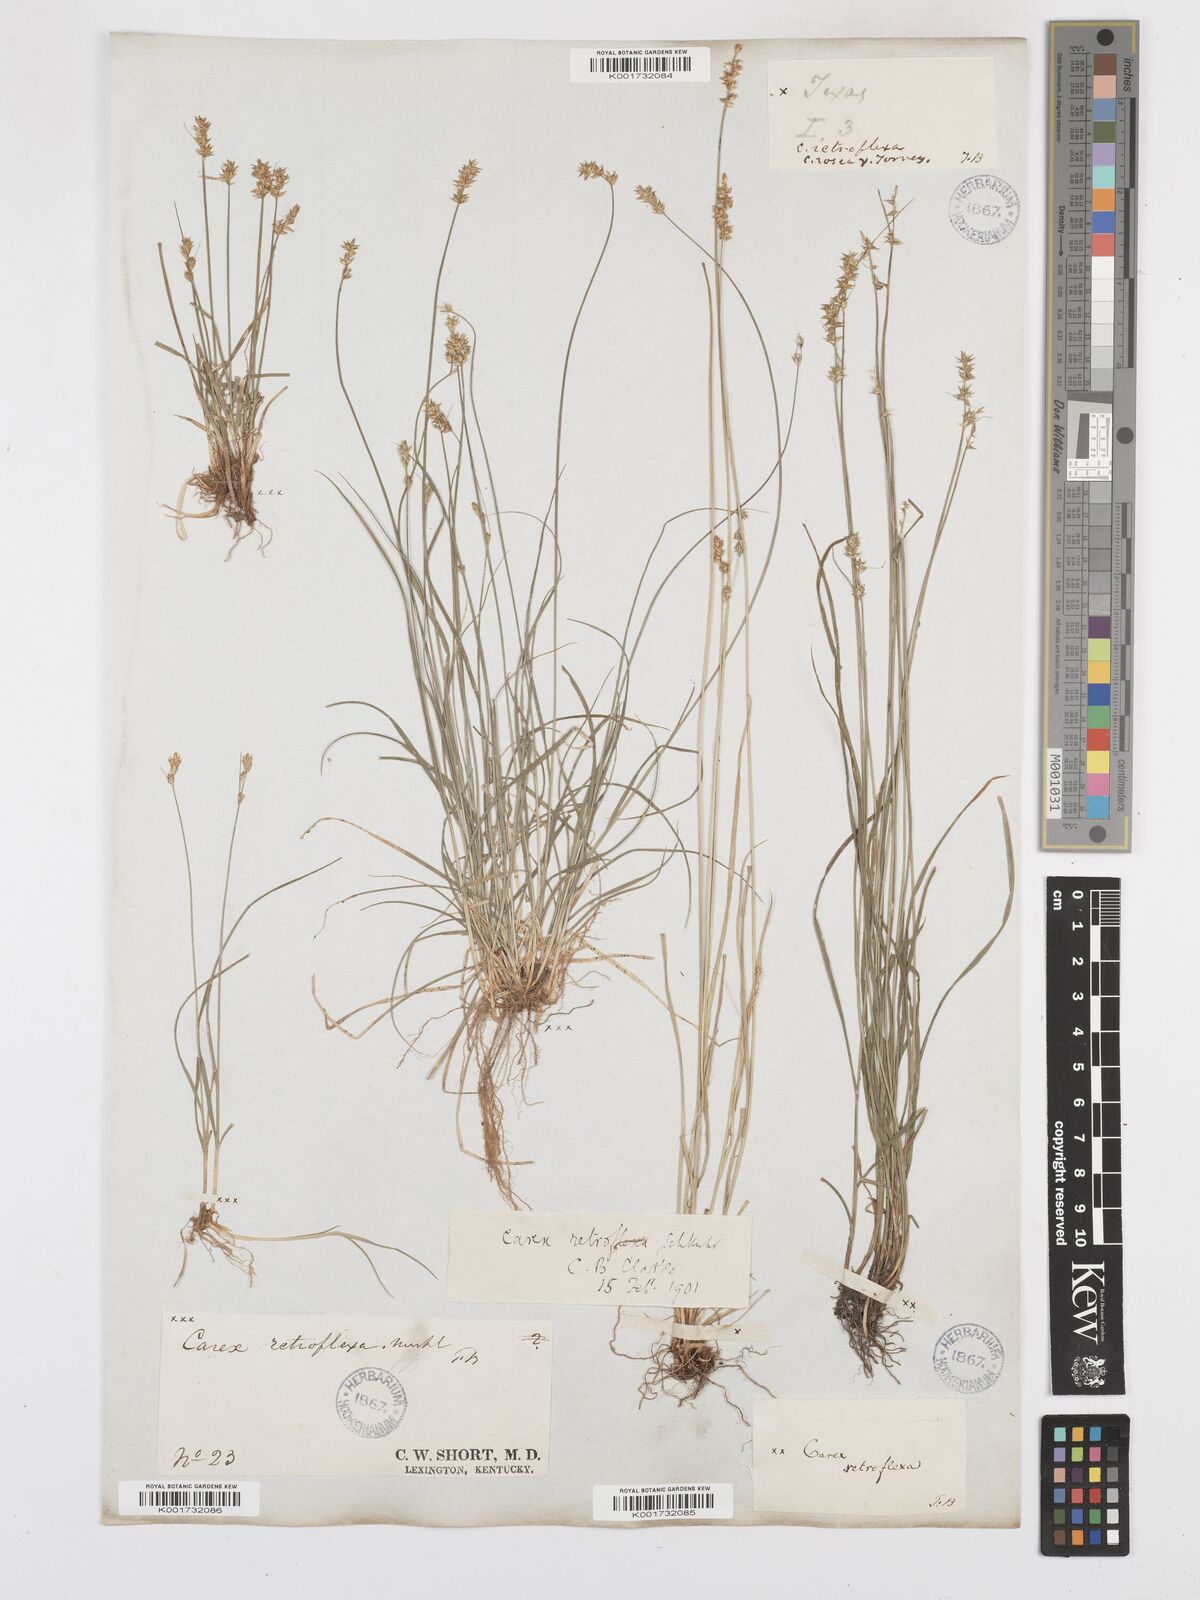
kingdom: Plantae
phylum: Tracheophyta
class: Liliopsida
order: Poales
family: Cyperaceae
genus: Carex
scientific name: Carex texensis
